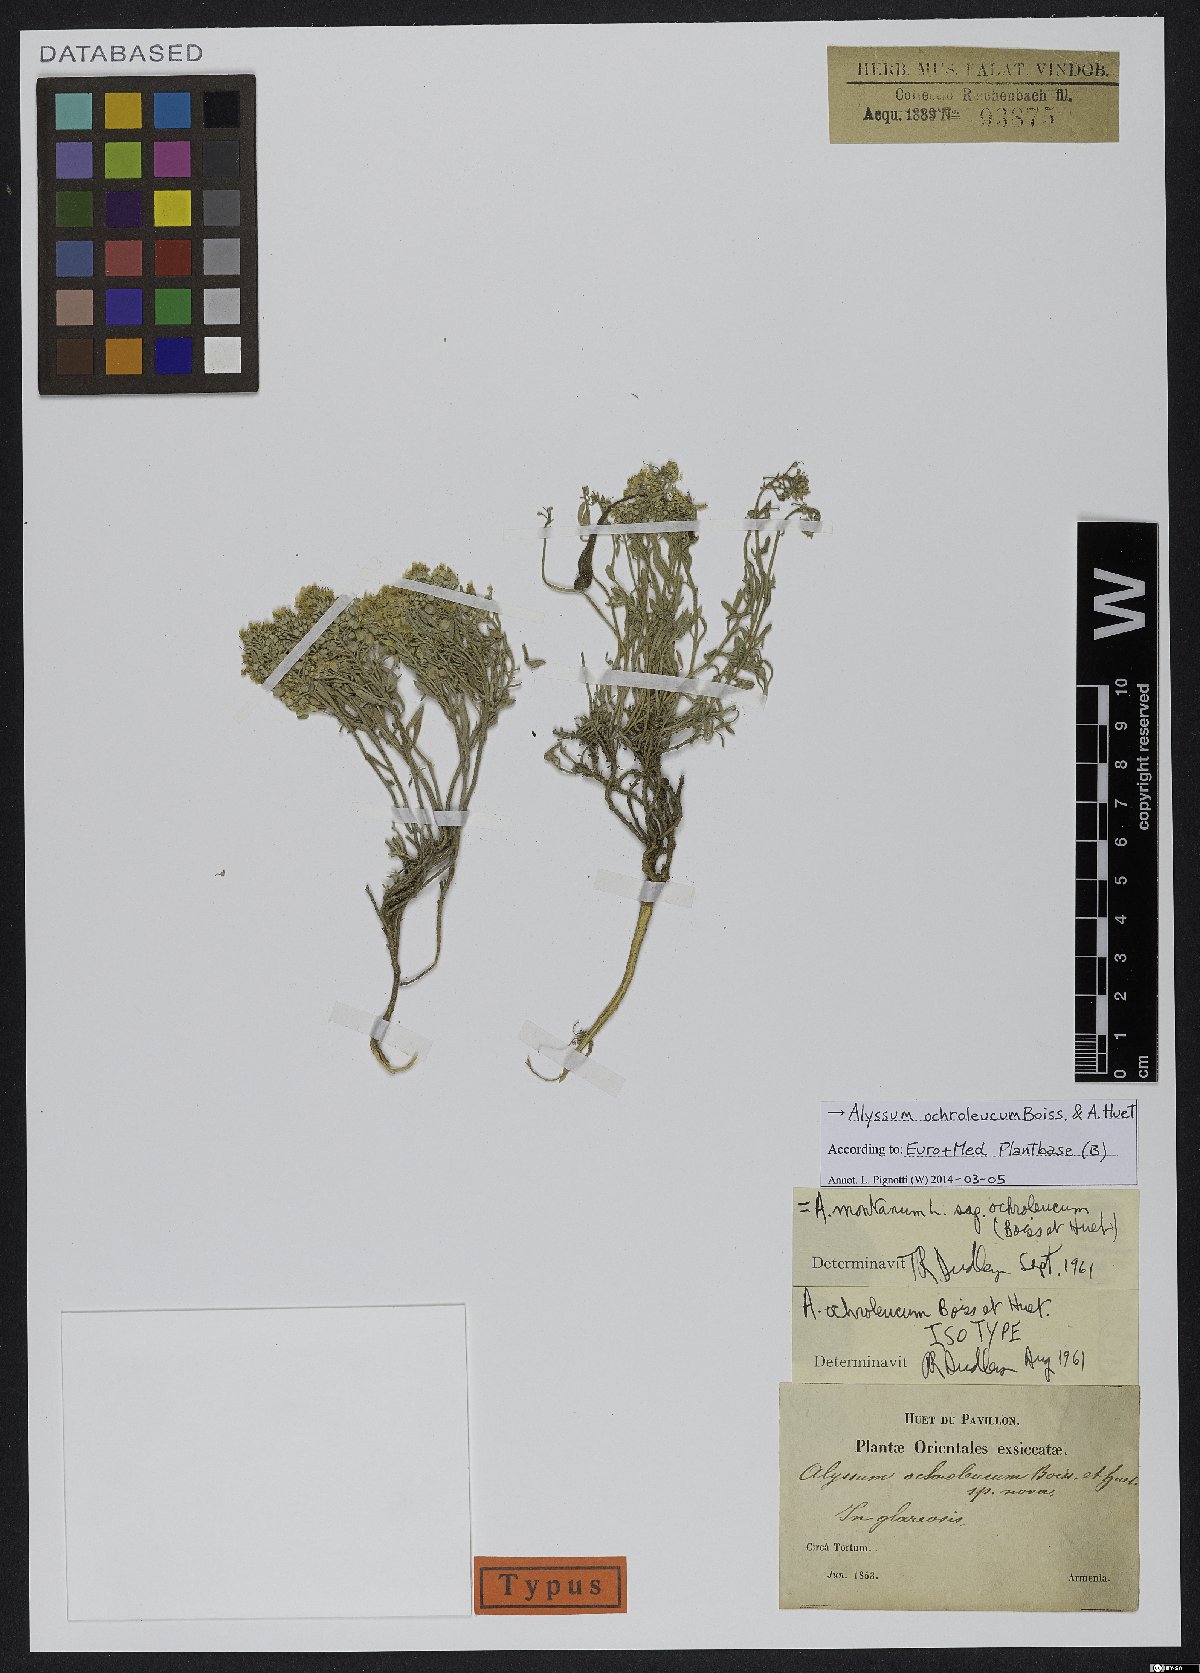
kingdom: Plantae
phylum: Tracheophyta
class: Magnoliopsida
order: Brassicales
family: Brassicaceae
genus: Alyssum
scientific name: Alyssum ochroleucum
